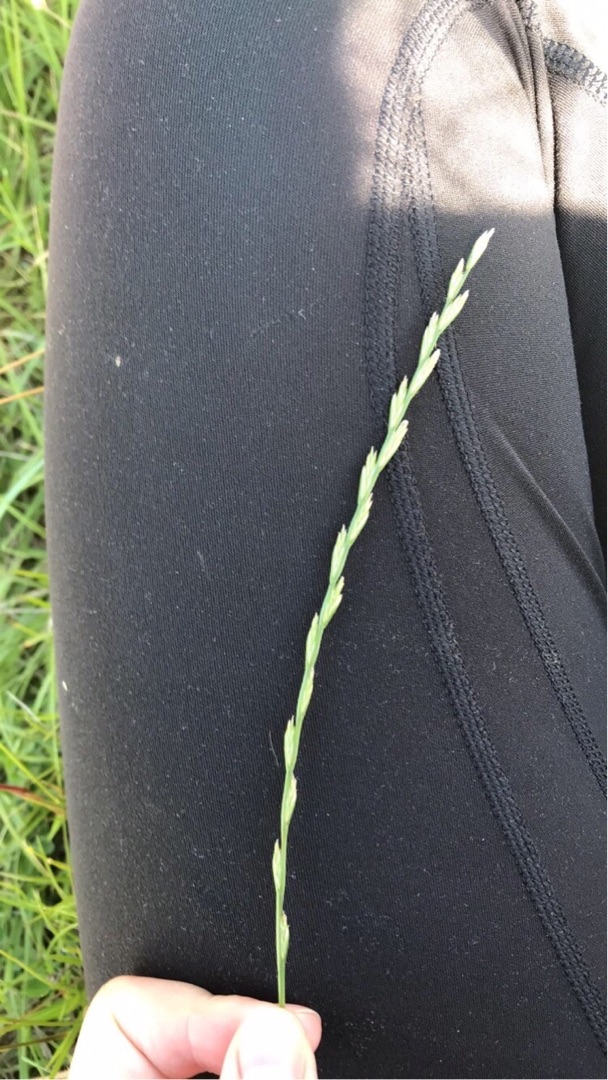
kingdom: Plantae
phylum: Tracheophyta
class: Liliopsida
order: Poales
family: Poaceae
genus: Lolium
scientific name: Lolium perenne
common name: Almindelig rajgræs
